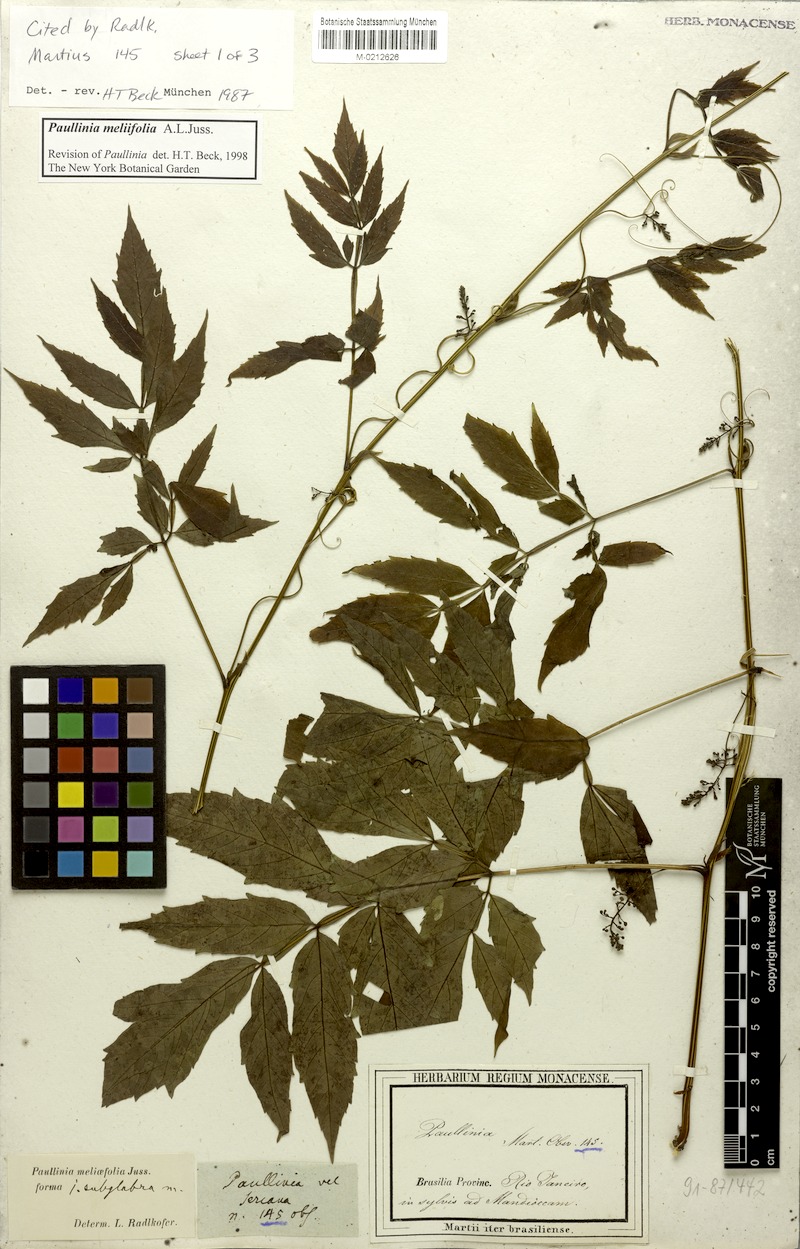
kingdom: Plantae
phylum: Tracheophyta
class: Magnoliopsida
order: Sapindales
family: Sapindaceae
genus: Paullinia
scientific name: Paullinia meliifolia
